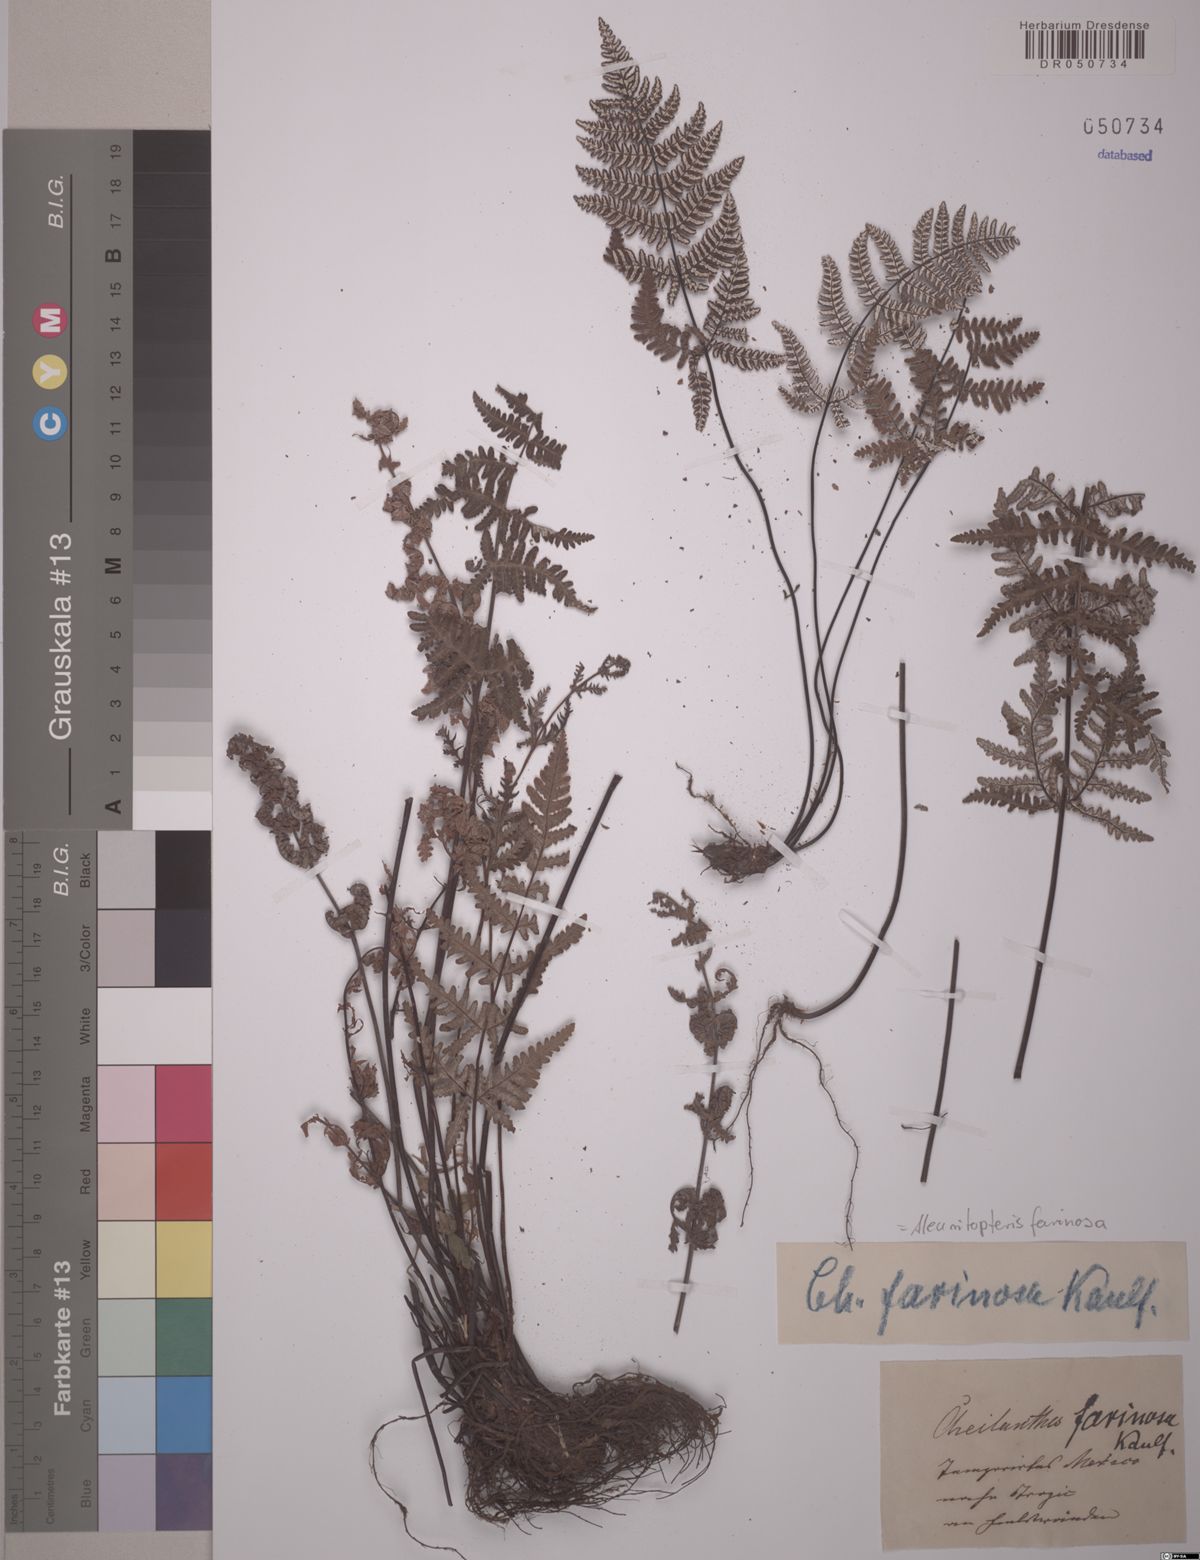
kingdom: Plantae
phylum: Tracheophyta
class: Polypodiopsida
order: Polypodiales
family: Pteridaceae
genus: Aleuritopteris
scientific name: Aleuritopteris farinosa
